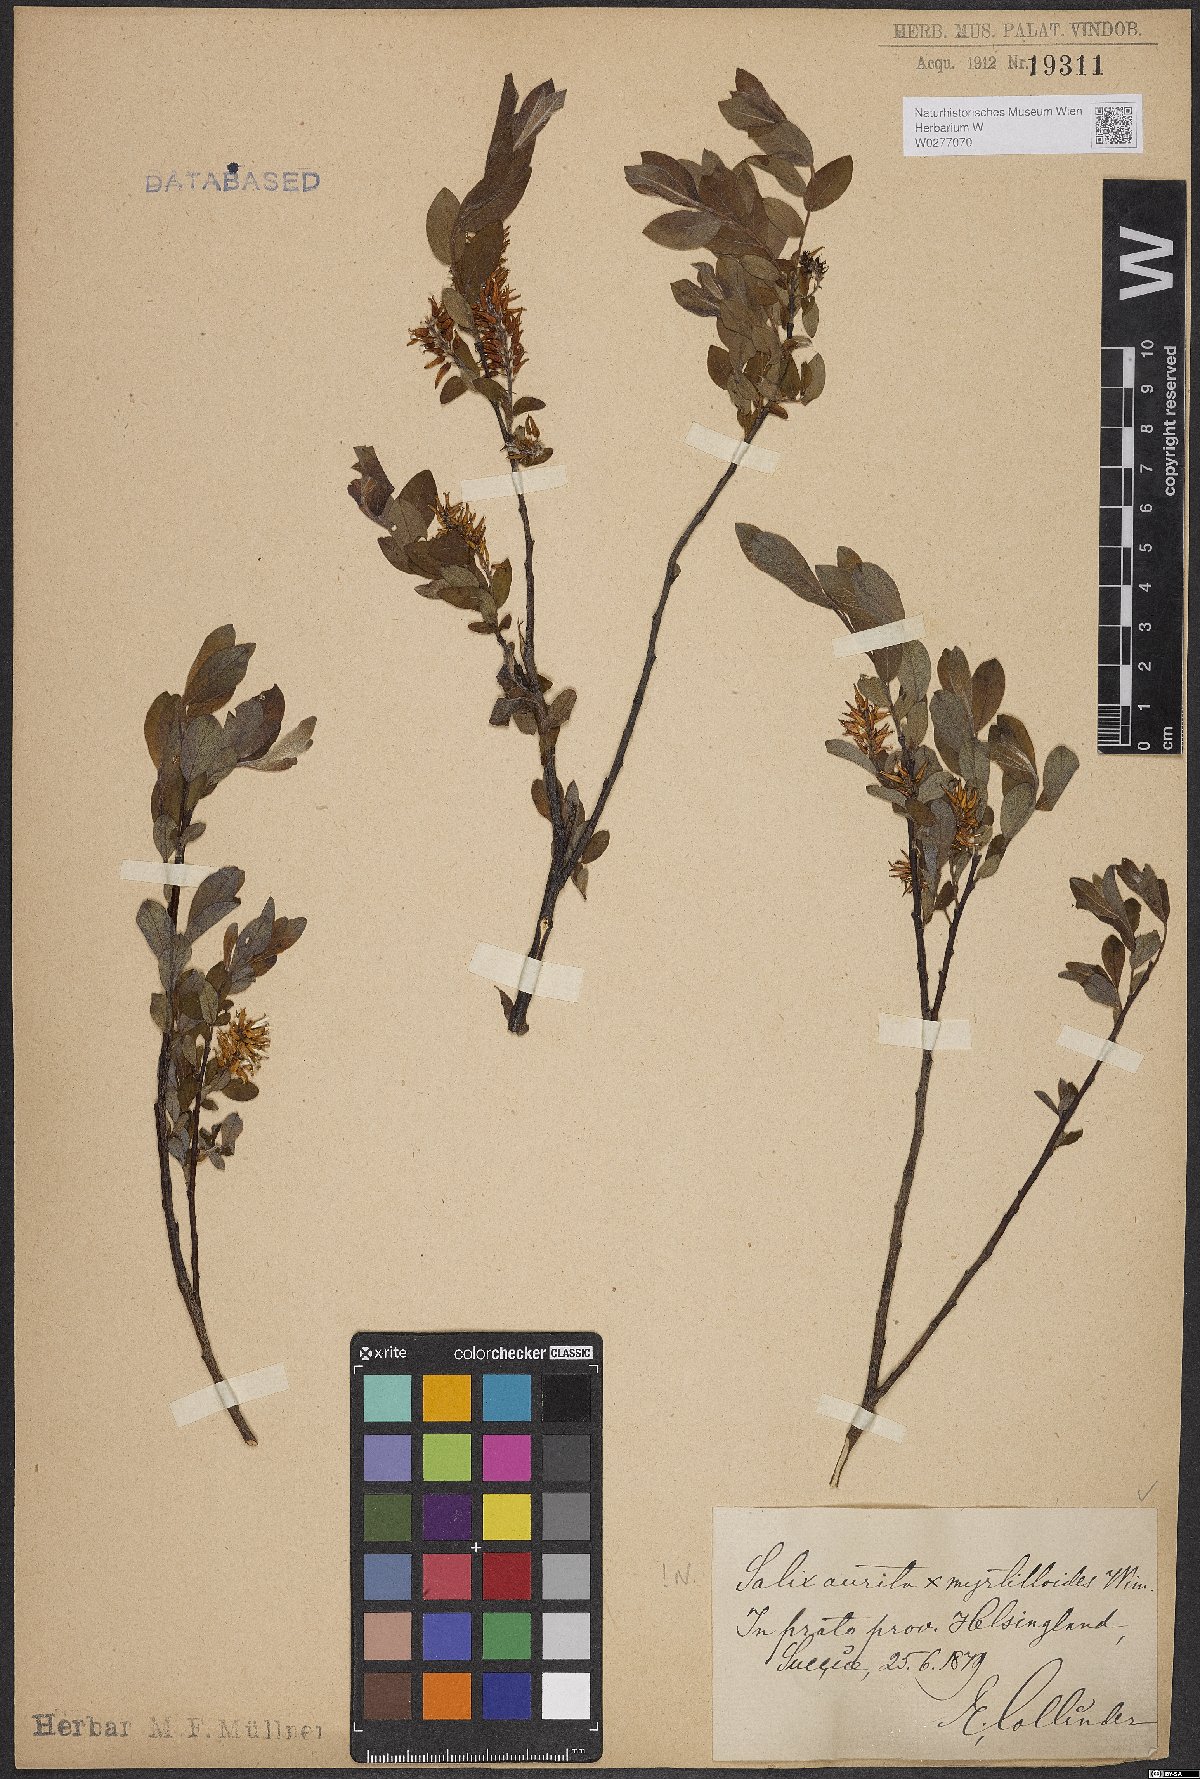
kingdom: Plantae
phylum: Tracheophyta
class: Magnoliopsida
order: Malpighiales
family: Salicaceae
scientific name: Salicaceae
